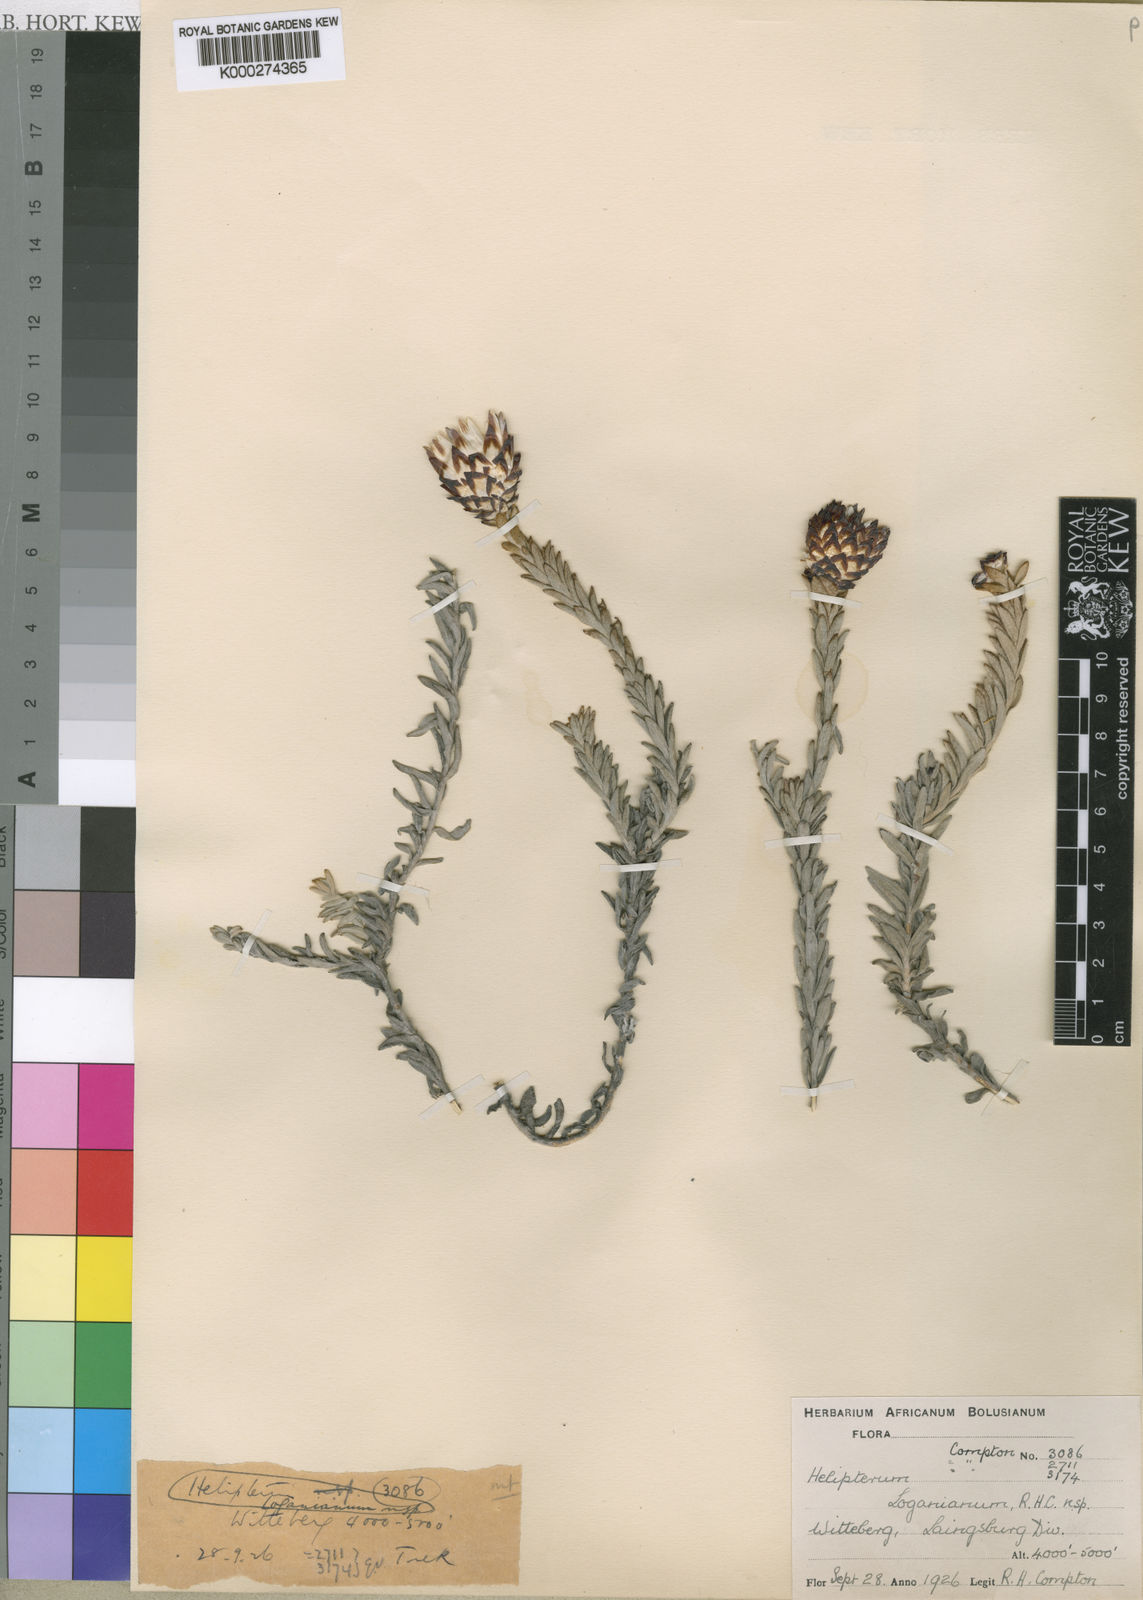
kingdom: Plantae
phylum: Tracheophyta
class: Magnoliopsida
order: Asterales
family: Asteraceae
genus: Syncarpha
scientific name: Syncarpha loganiana
